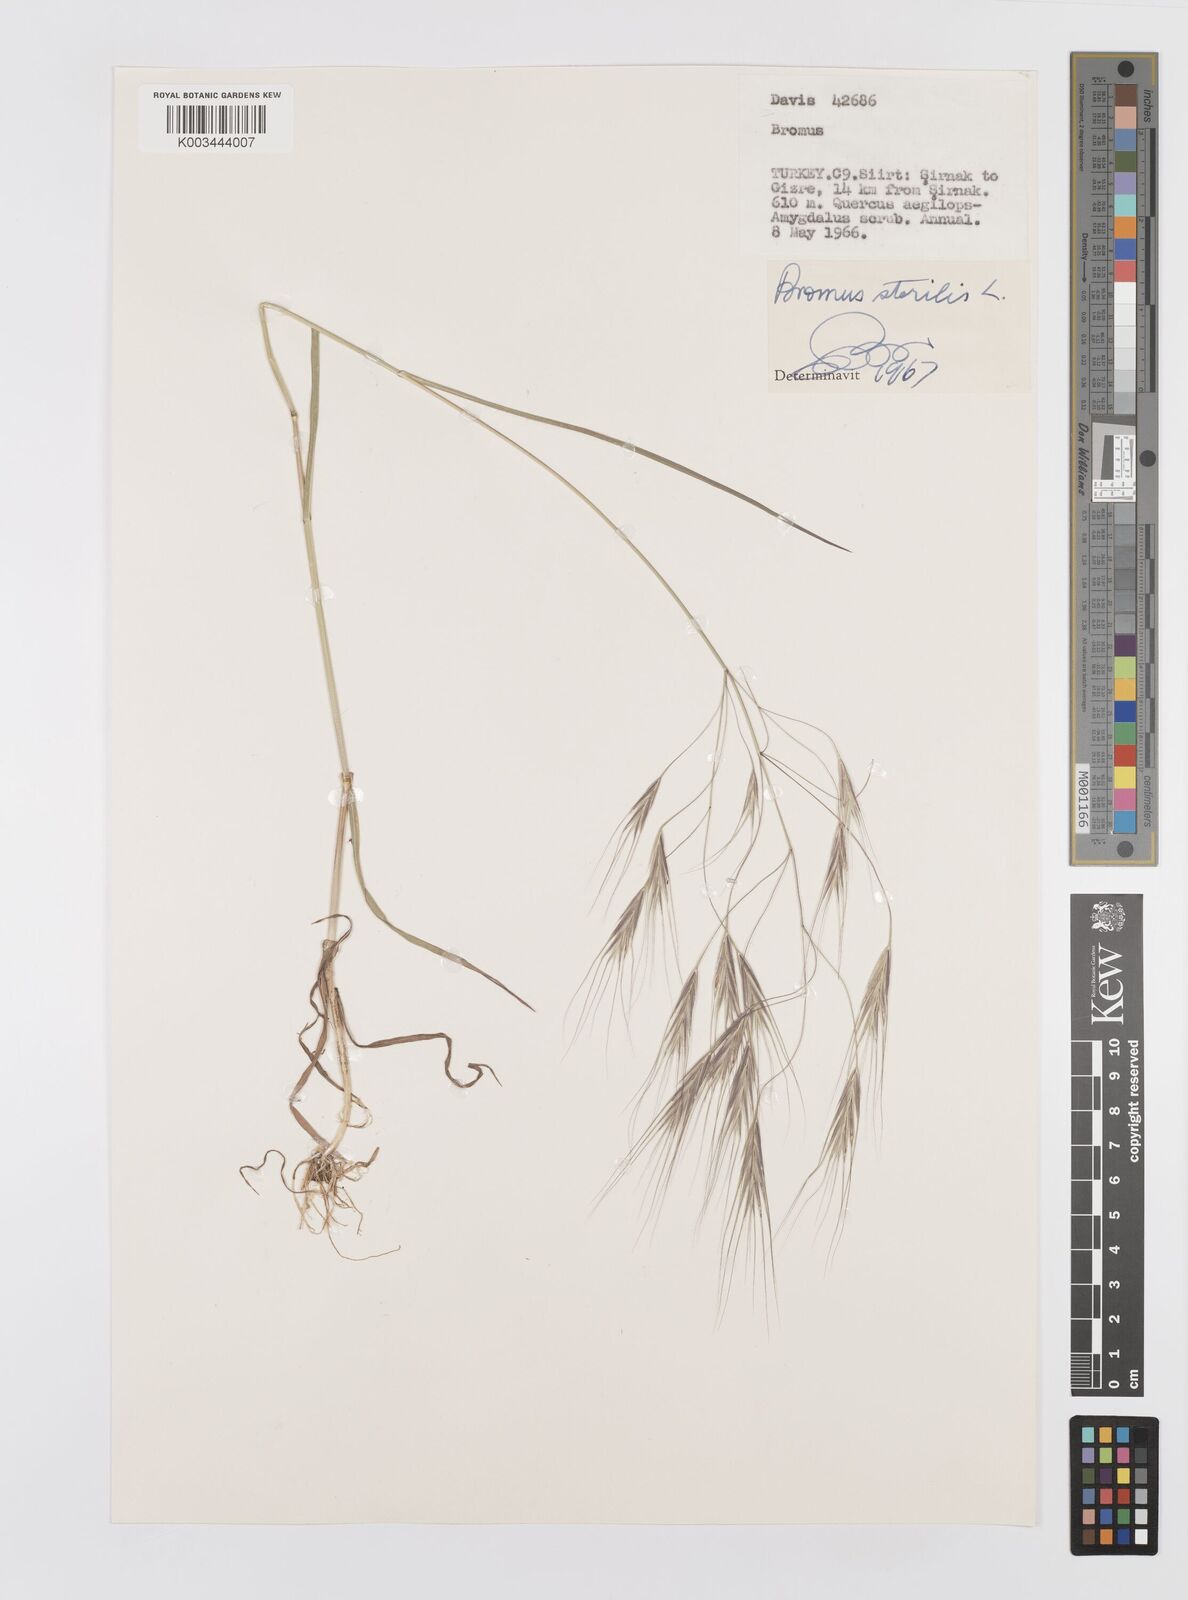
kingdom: Plantae
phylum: Tracheophyta
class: Liliopsida
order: Poales
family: Poaceae
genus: Bromus
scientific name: Bromus sterilis
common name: Poverty brome
